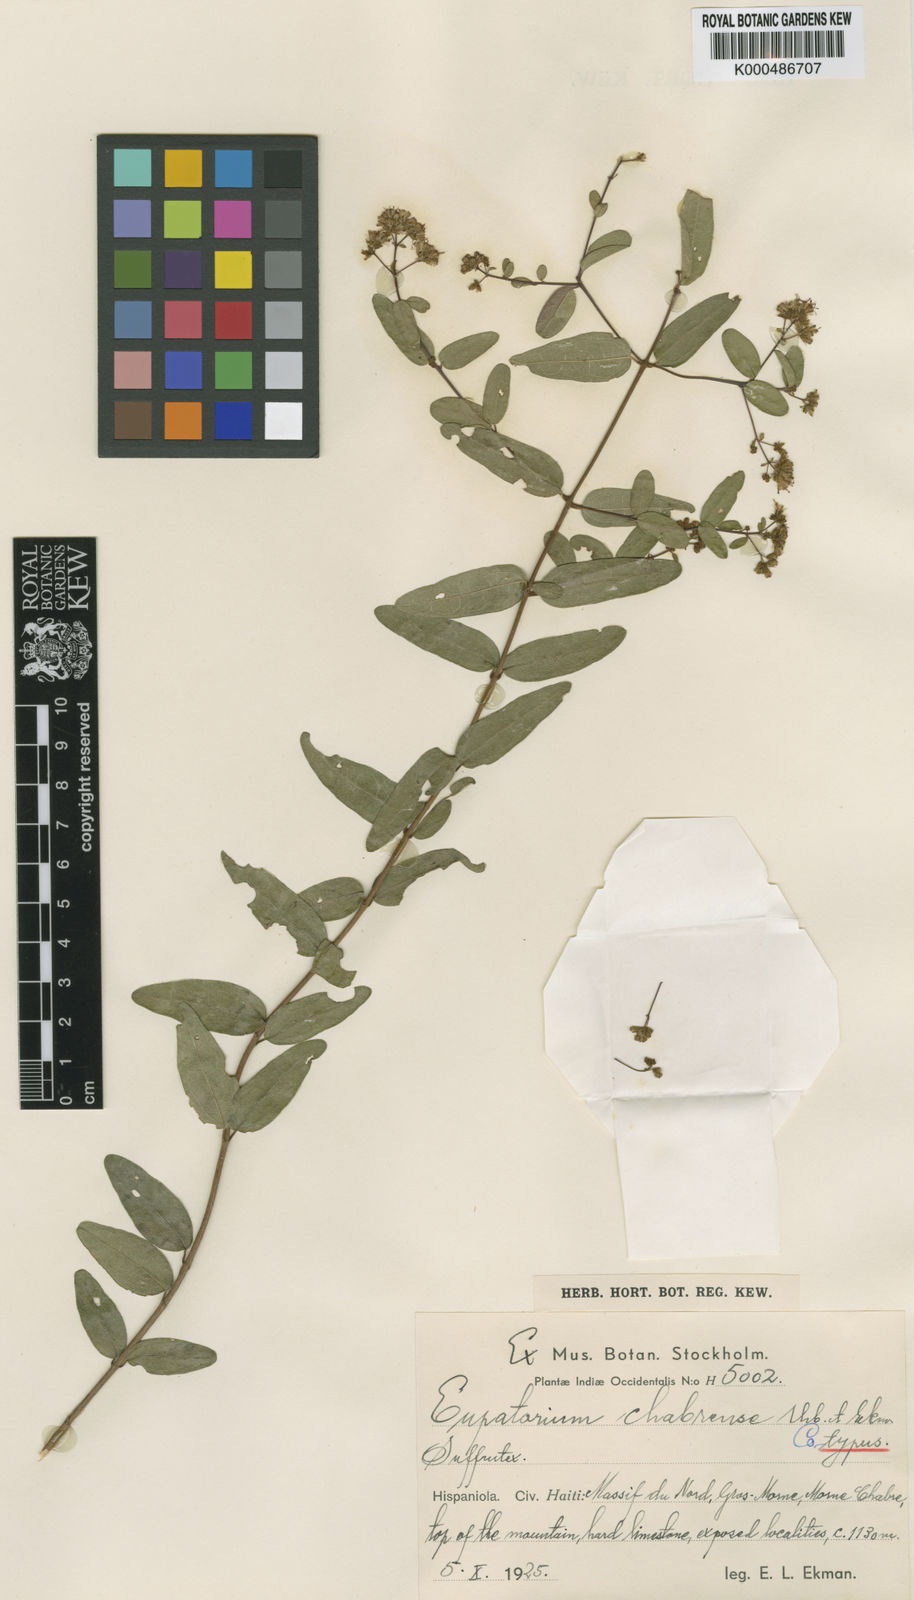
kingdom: Plantae
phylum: Tracheophyta
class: Magnoliopsida
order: Asterales
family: Asteraceae
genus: Koanophyllon
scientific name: Koanophyllon chabrense
